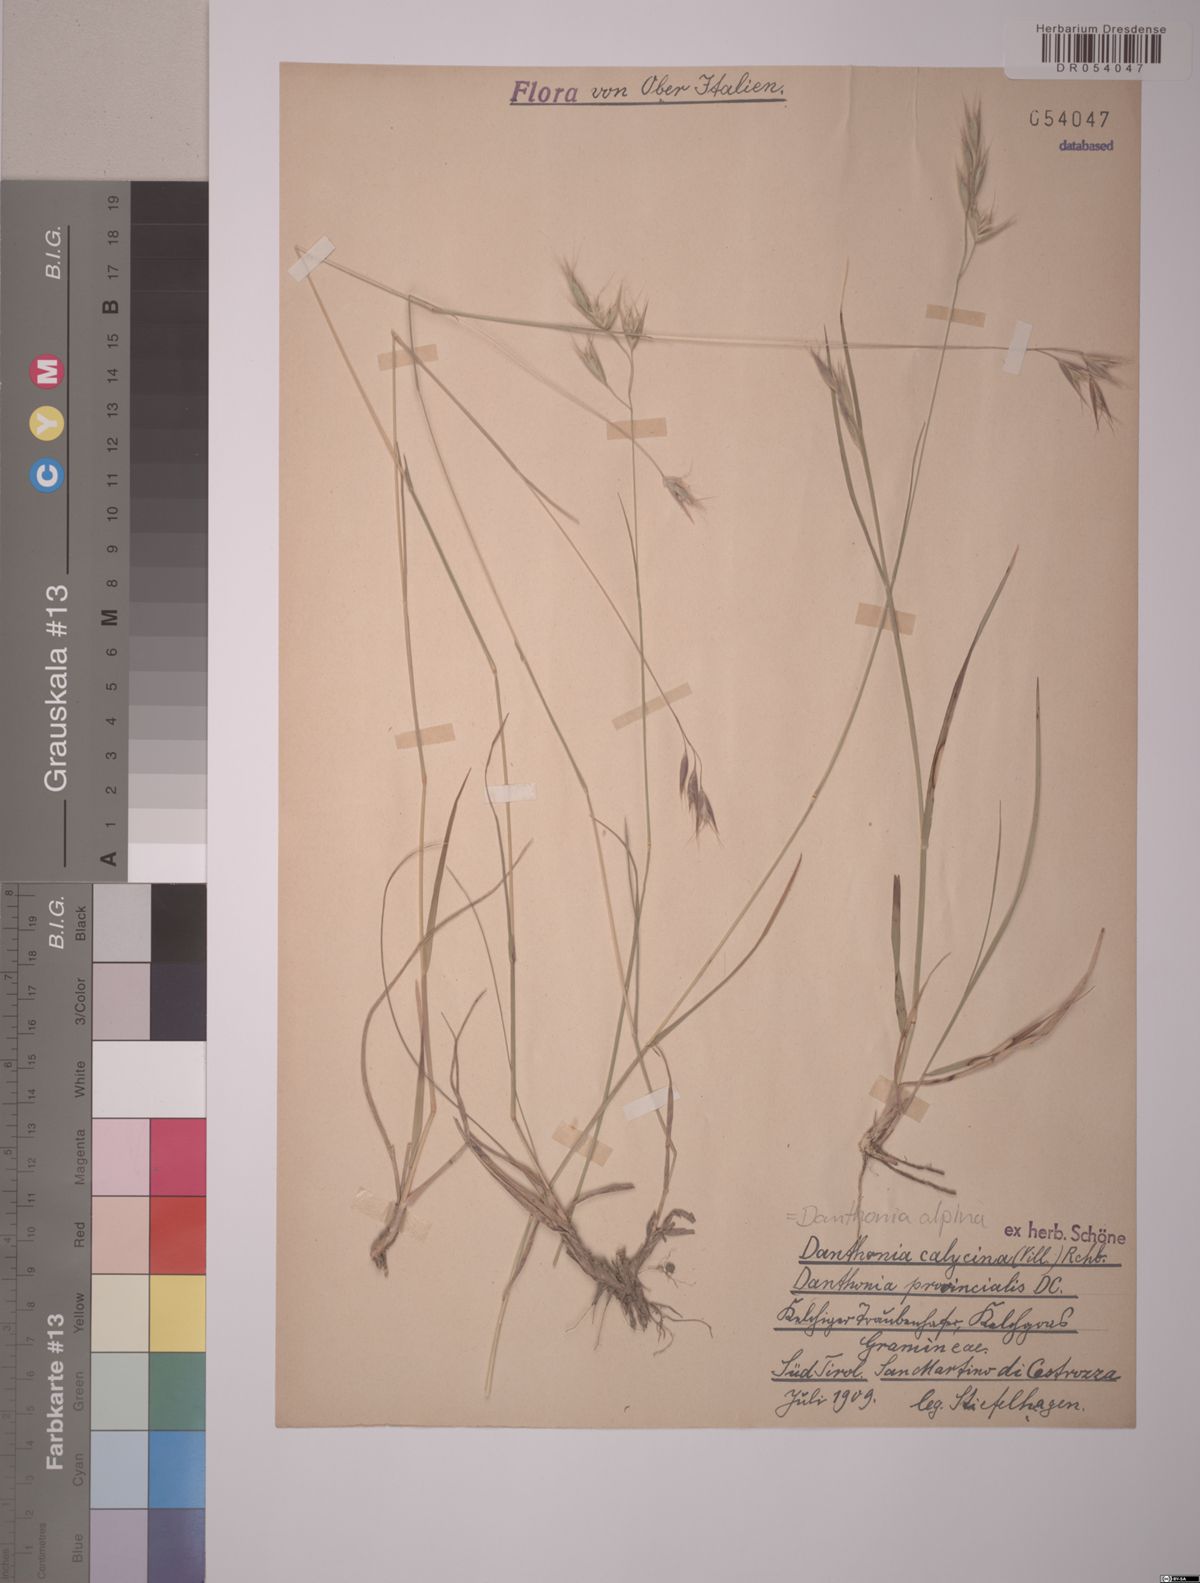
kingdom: Plantae
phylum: Tracheophyta
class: Liliopsida
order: Poales
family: Poaceae
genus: Danthonia
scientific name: Danthonia alpina
